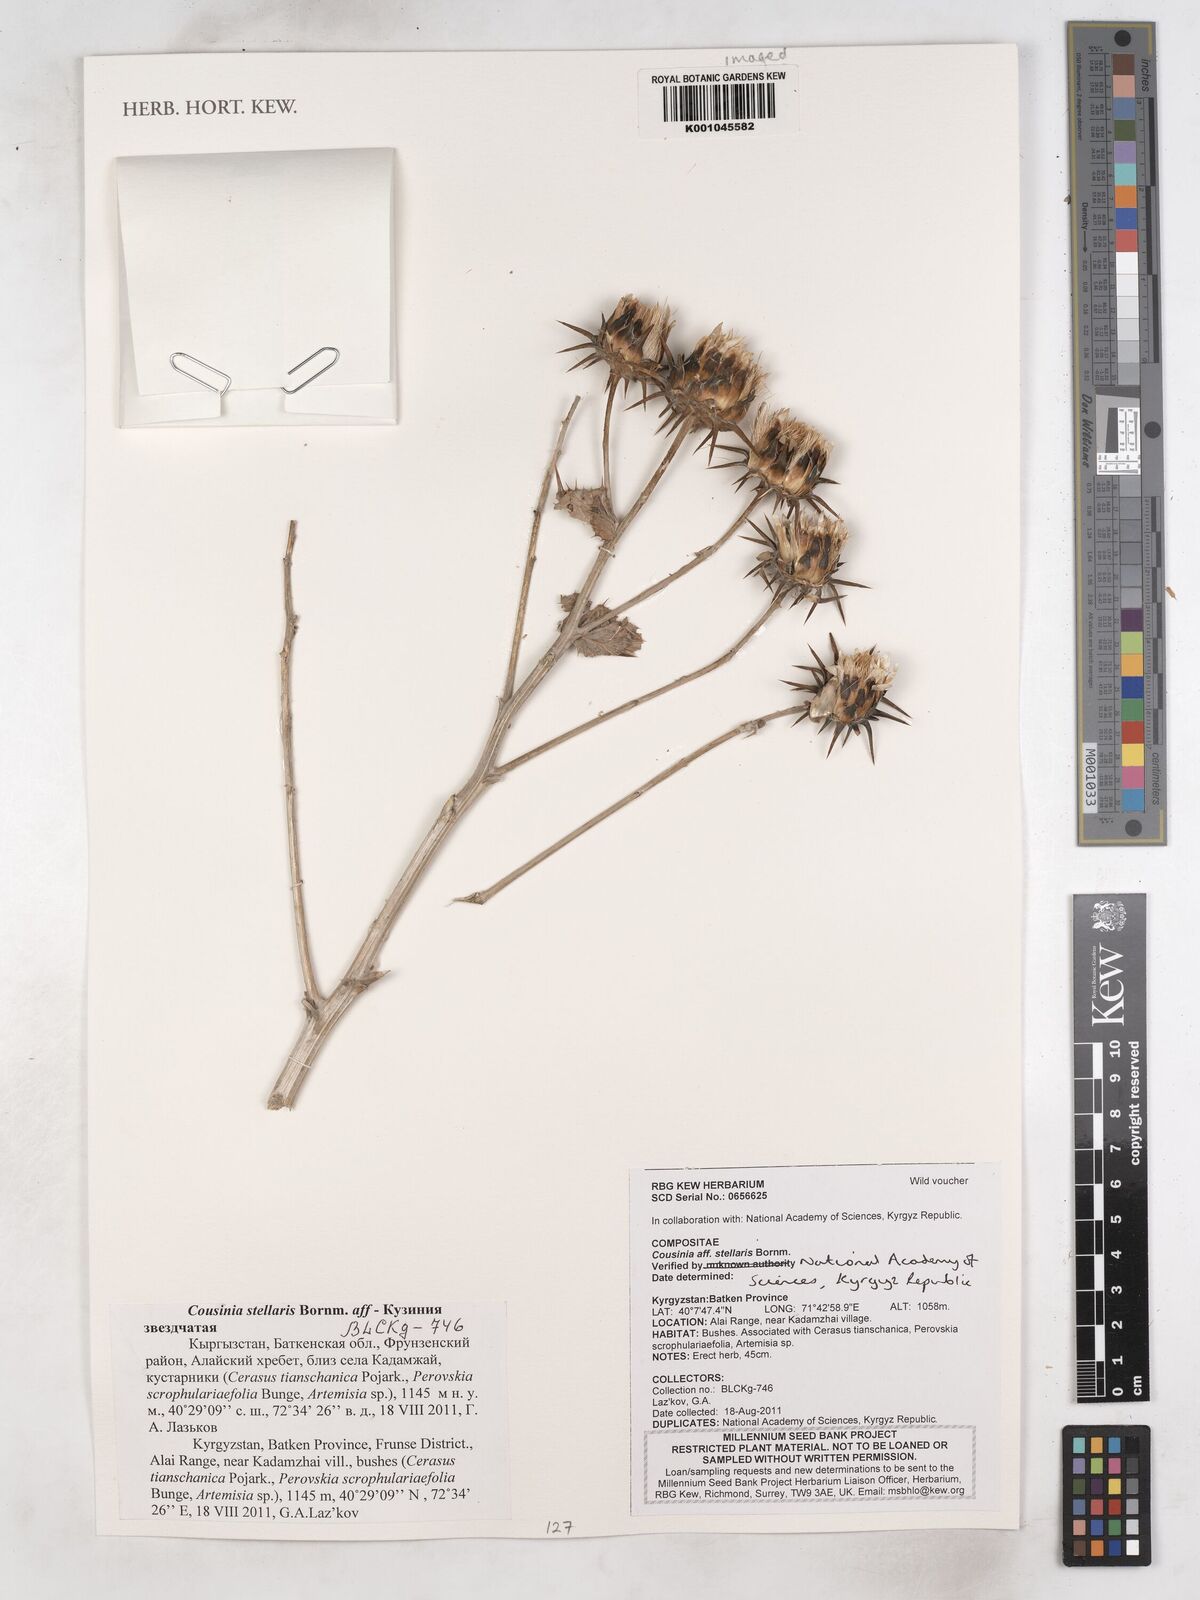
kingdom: Plantae
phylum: Tracheophyta
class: Magnoliopsida
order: Asterales
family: Asteraceae
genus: Cousinia
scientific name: Cousinia stellaris
